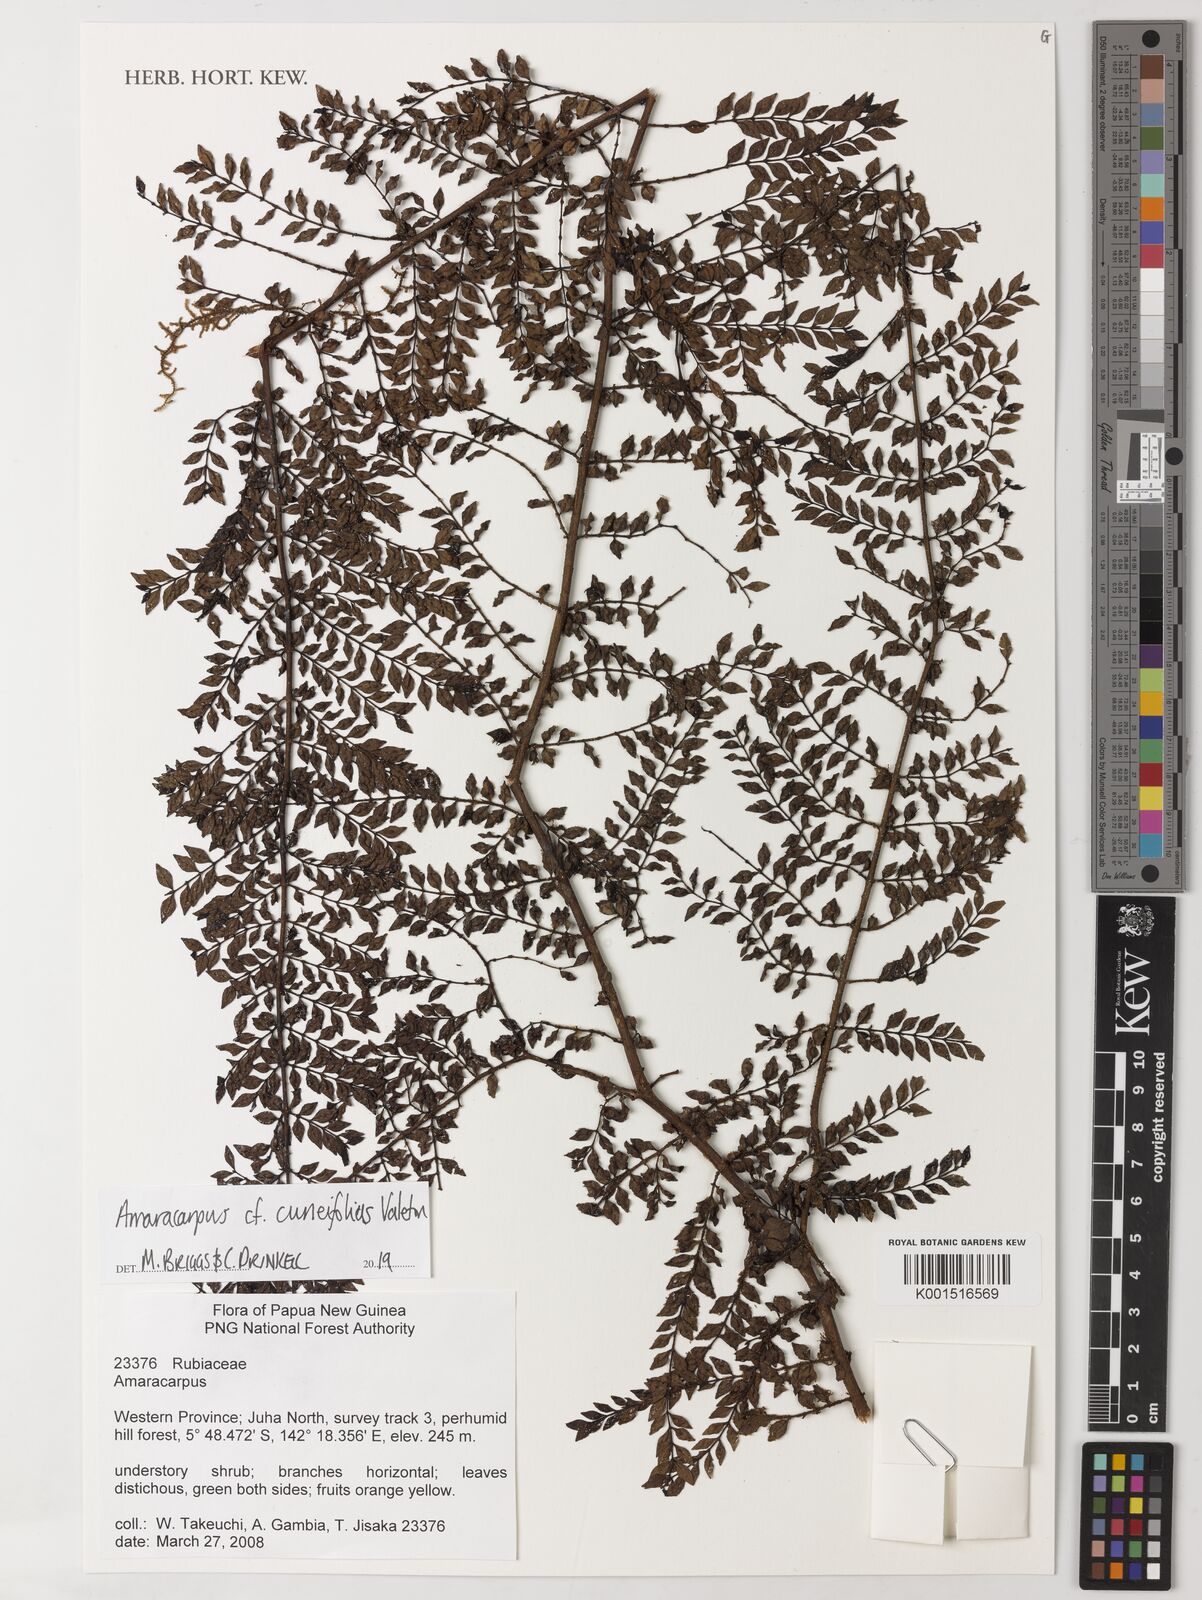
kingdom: Plantae
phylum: Tracheophyta
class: Magnoliopsida
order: Gentianales
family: Rubiaceae
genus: Amaracarpus
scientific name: Amaracarpus cuneifolius
